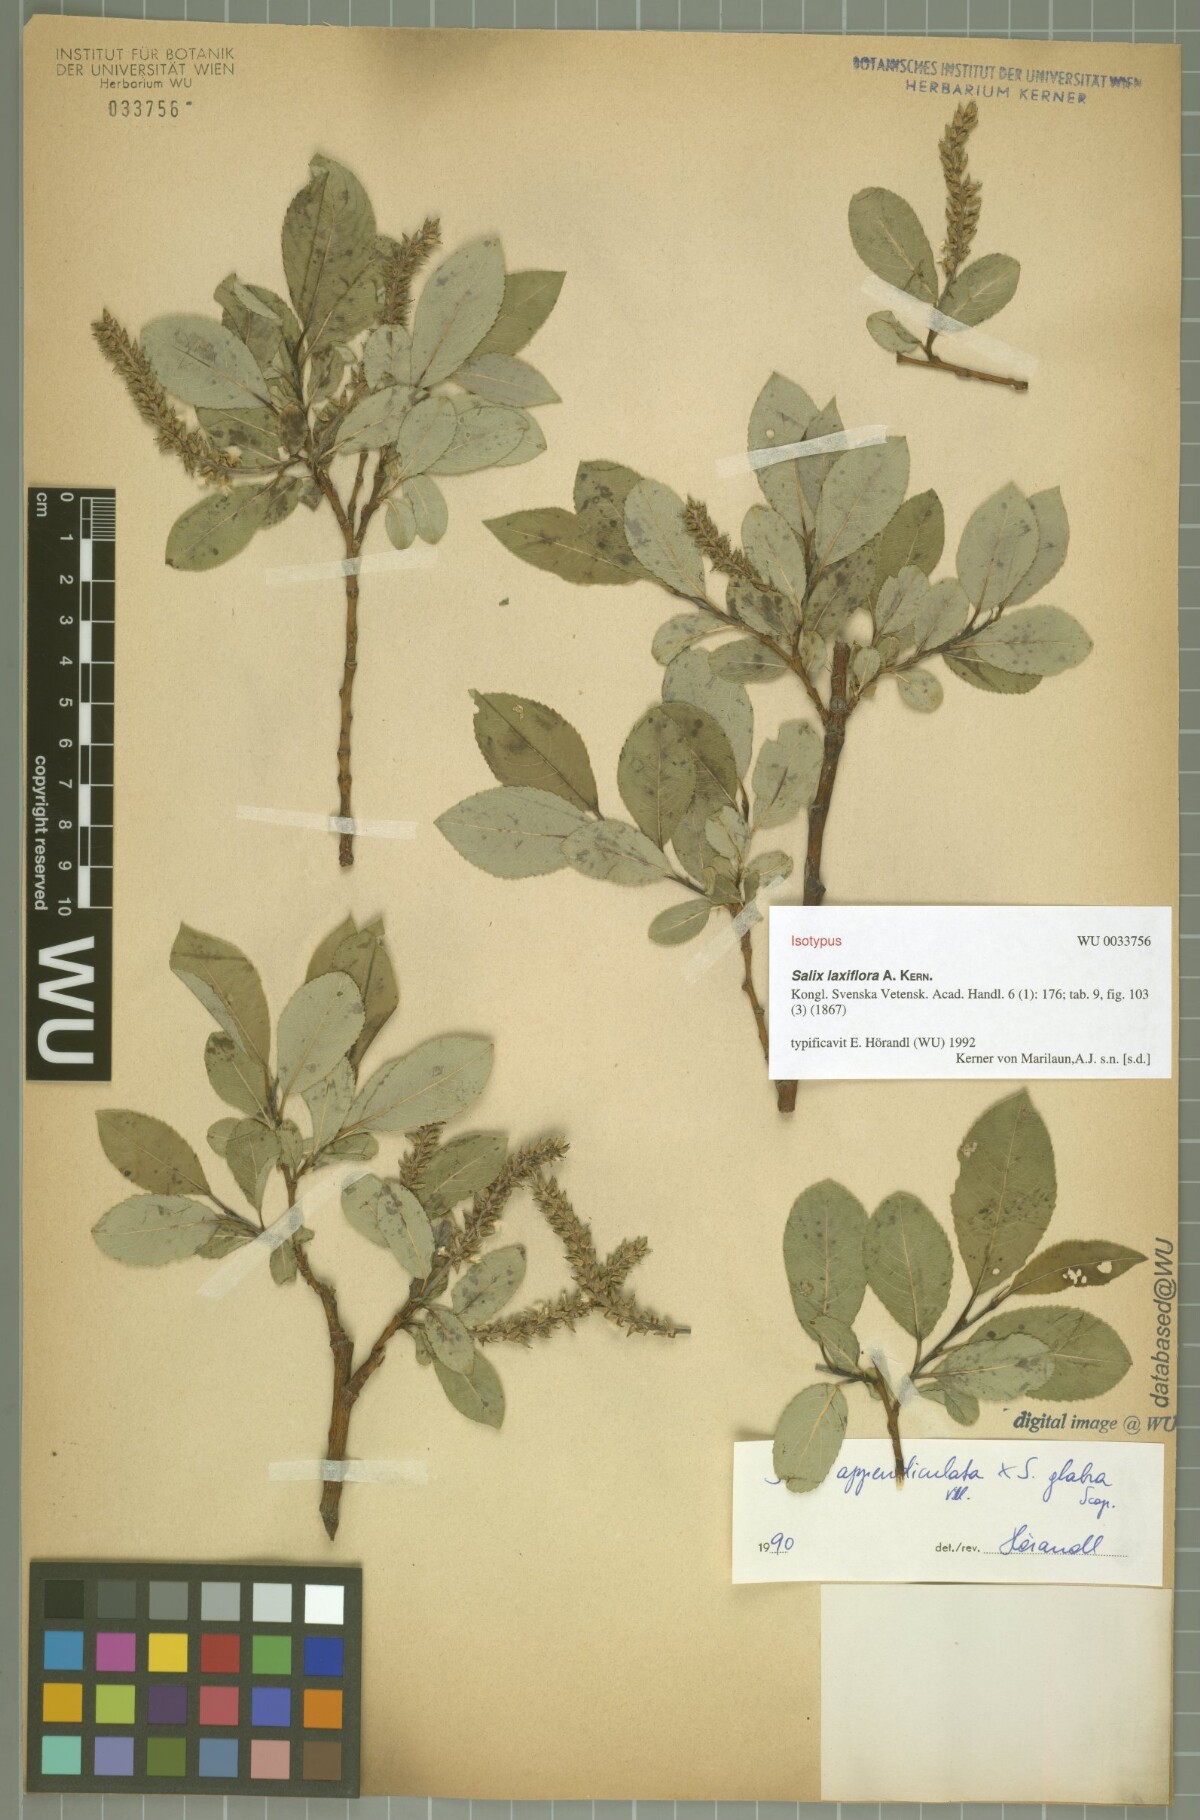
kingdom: Plantae
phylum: Tracheophyta
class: Magnoliopsida
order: Malpighiales
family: Salicaceae
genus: Salix
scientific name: Salix glabra
